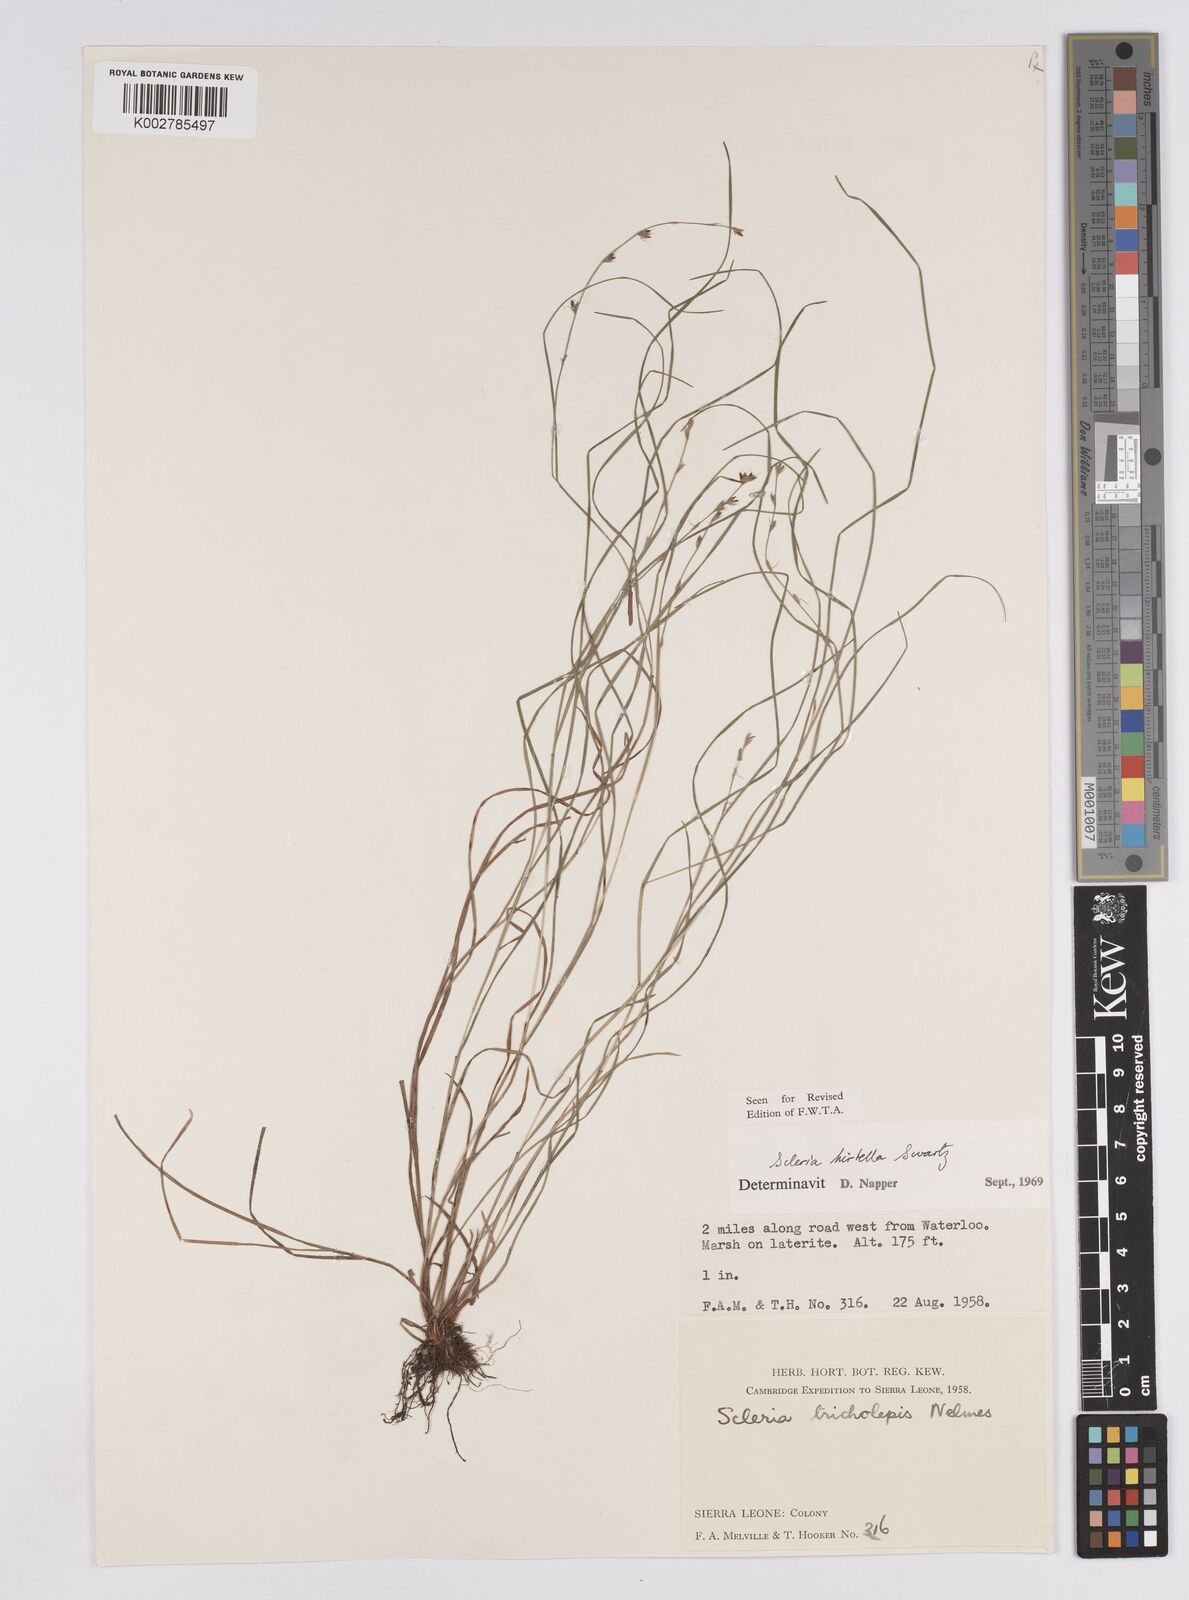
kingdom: Plantae
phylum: Tracheophyta
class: Liliopsida
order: Poales
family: Cyperaceae
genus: Scleria
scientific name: Scleria tricholepis
